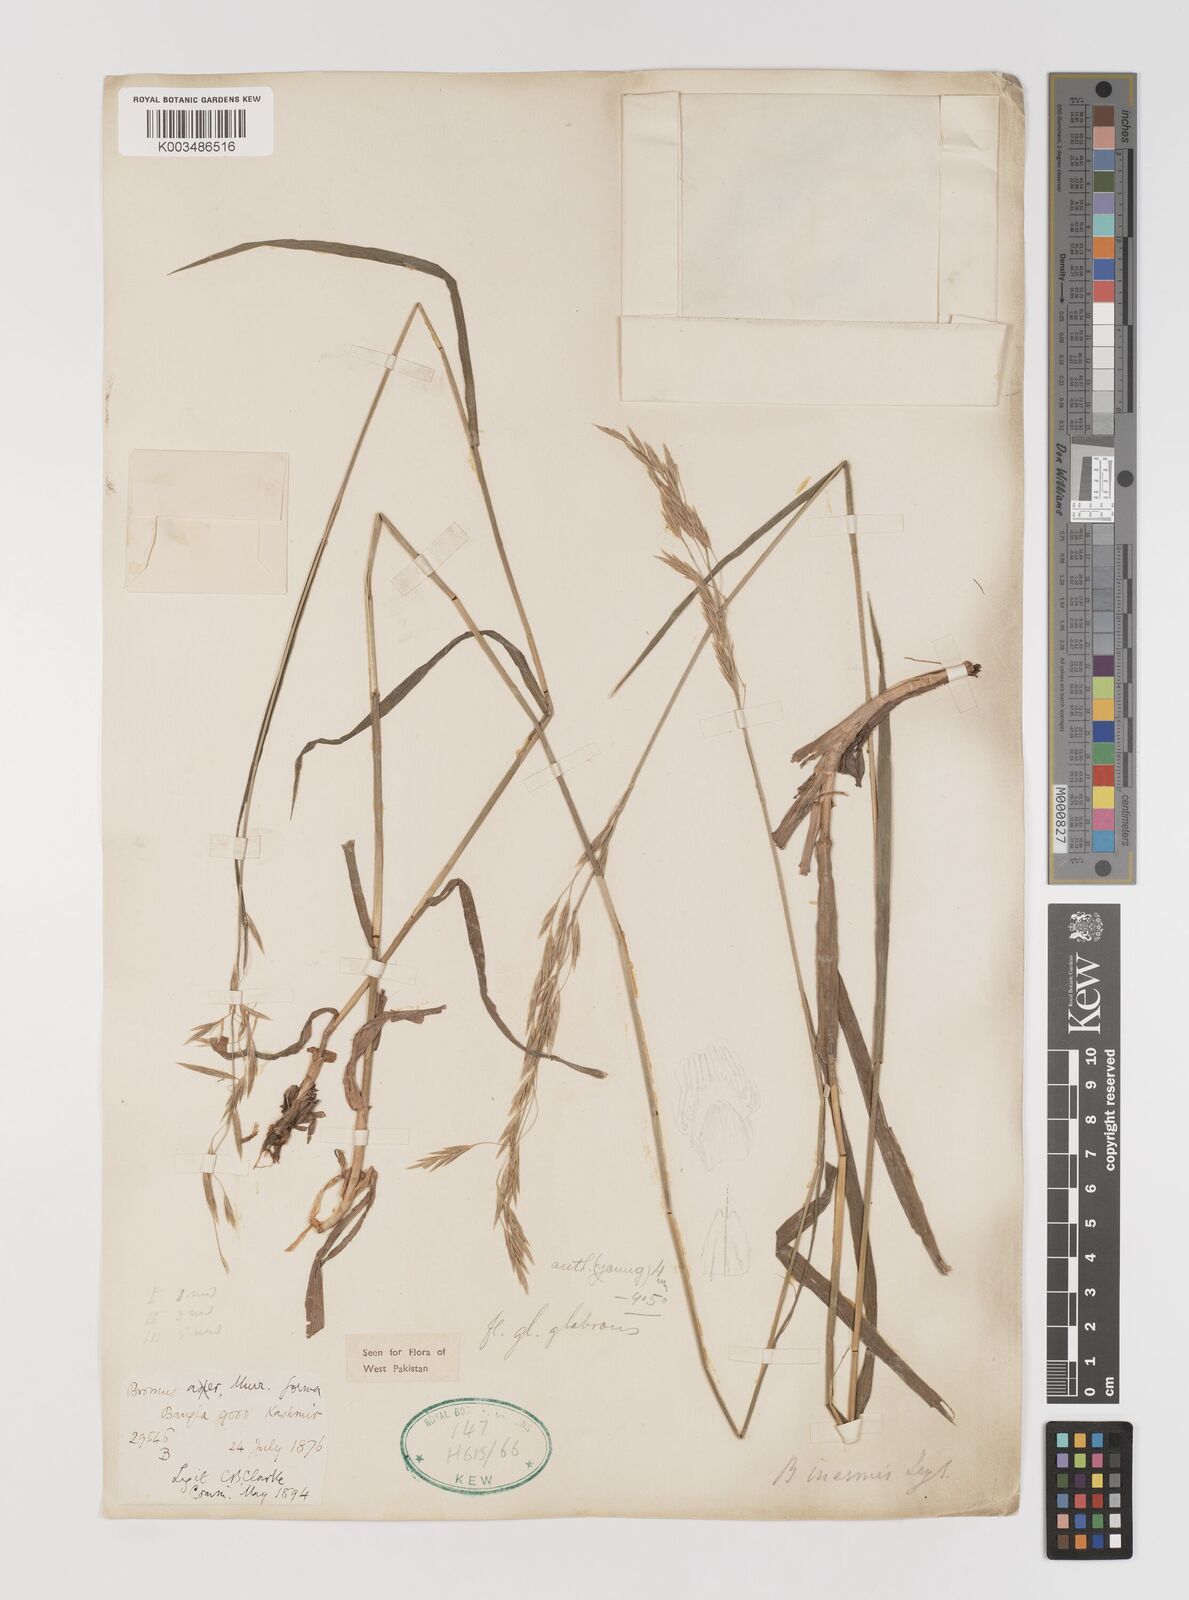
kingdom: Plantae
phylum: Tracheophyta
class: Liliopsida
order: Poales
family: Poaceae
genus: Bromus
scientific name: Bromus inermis
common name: Smooth brome
